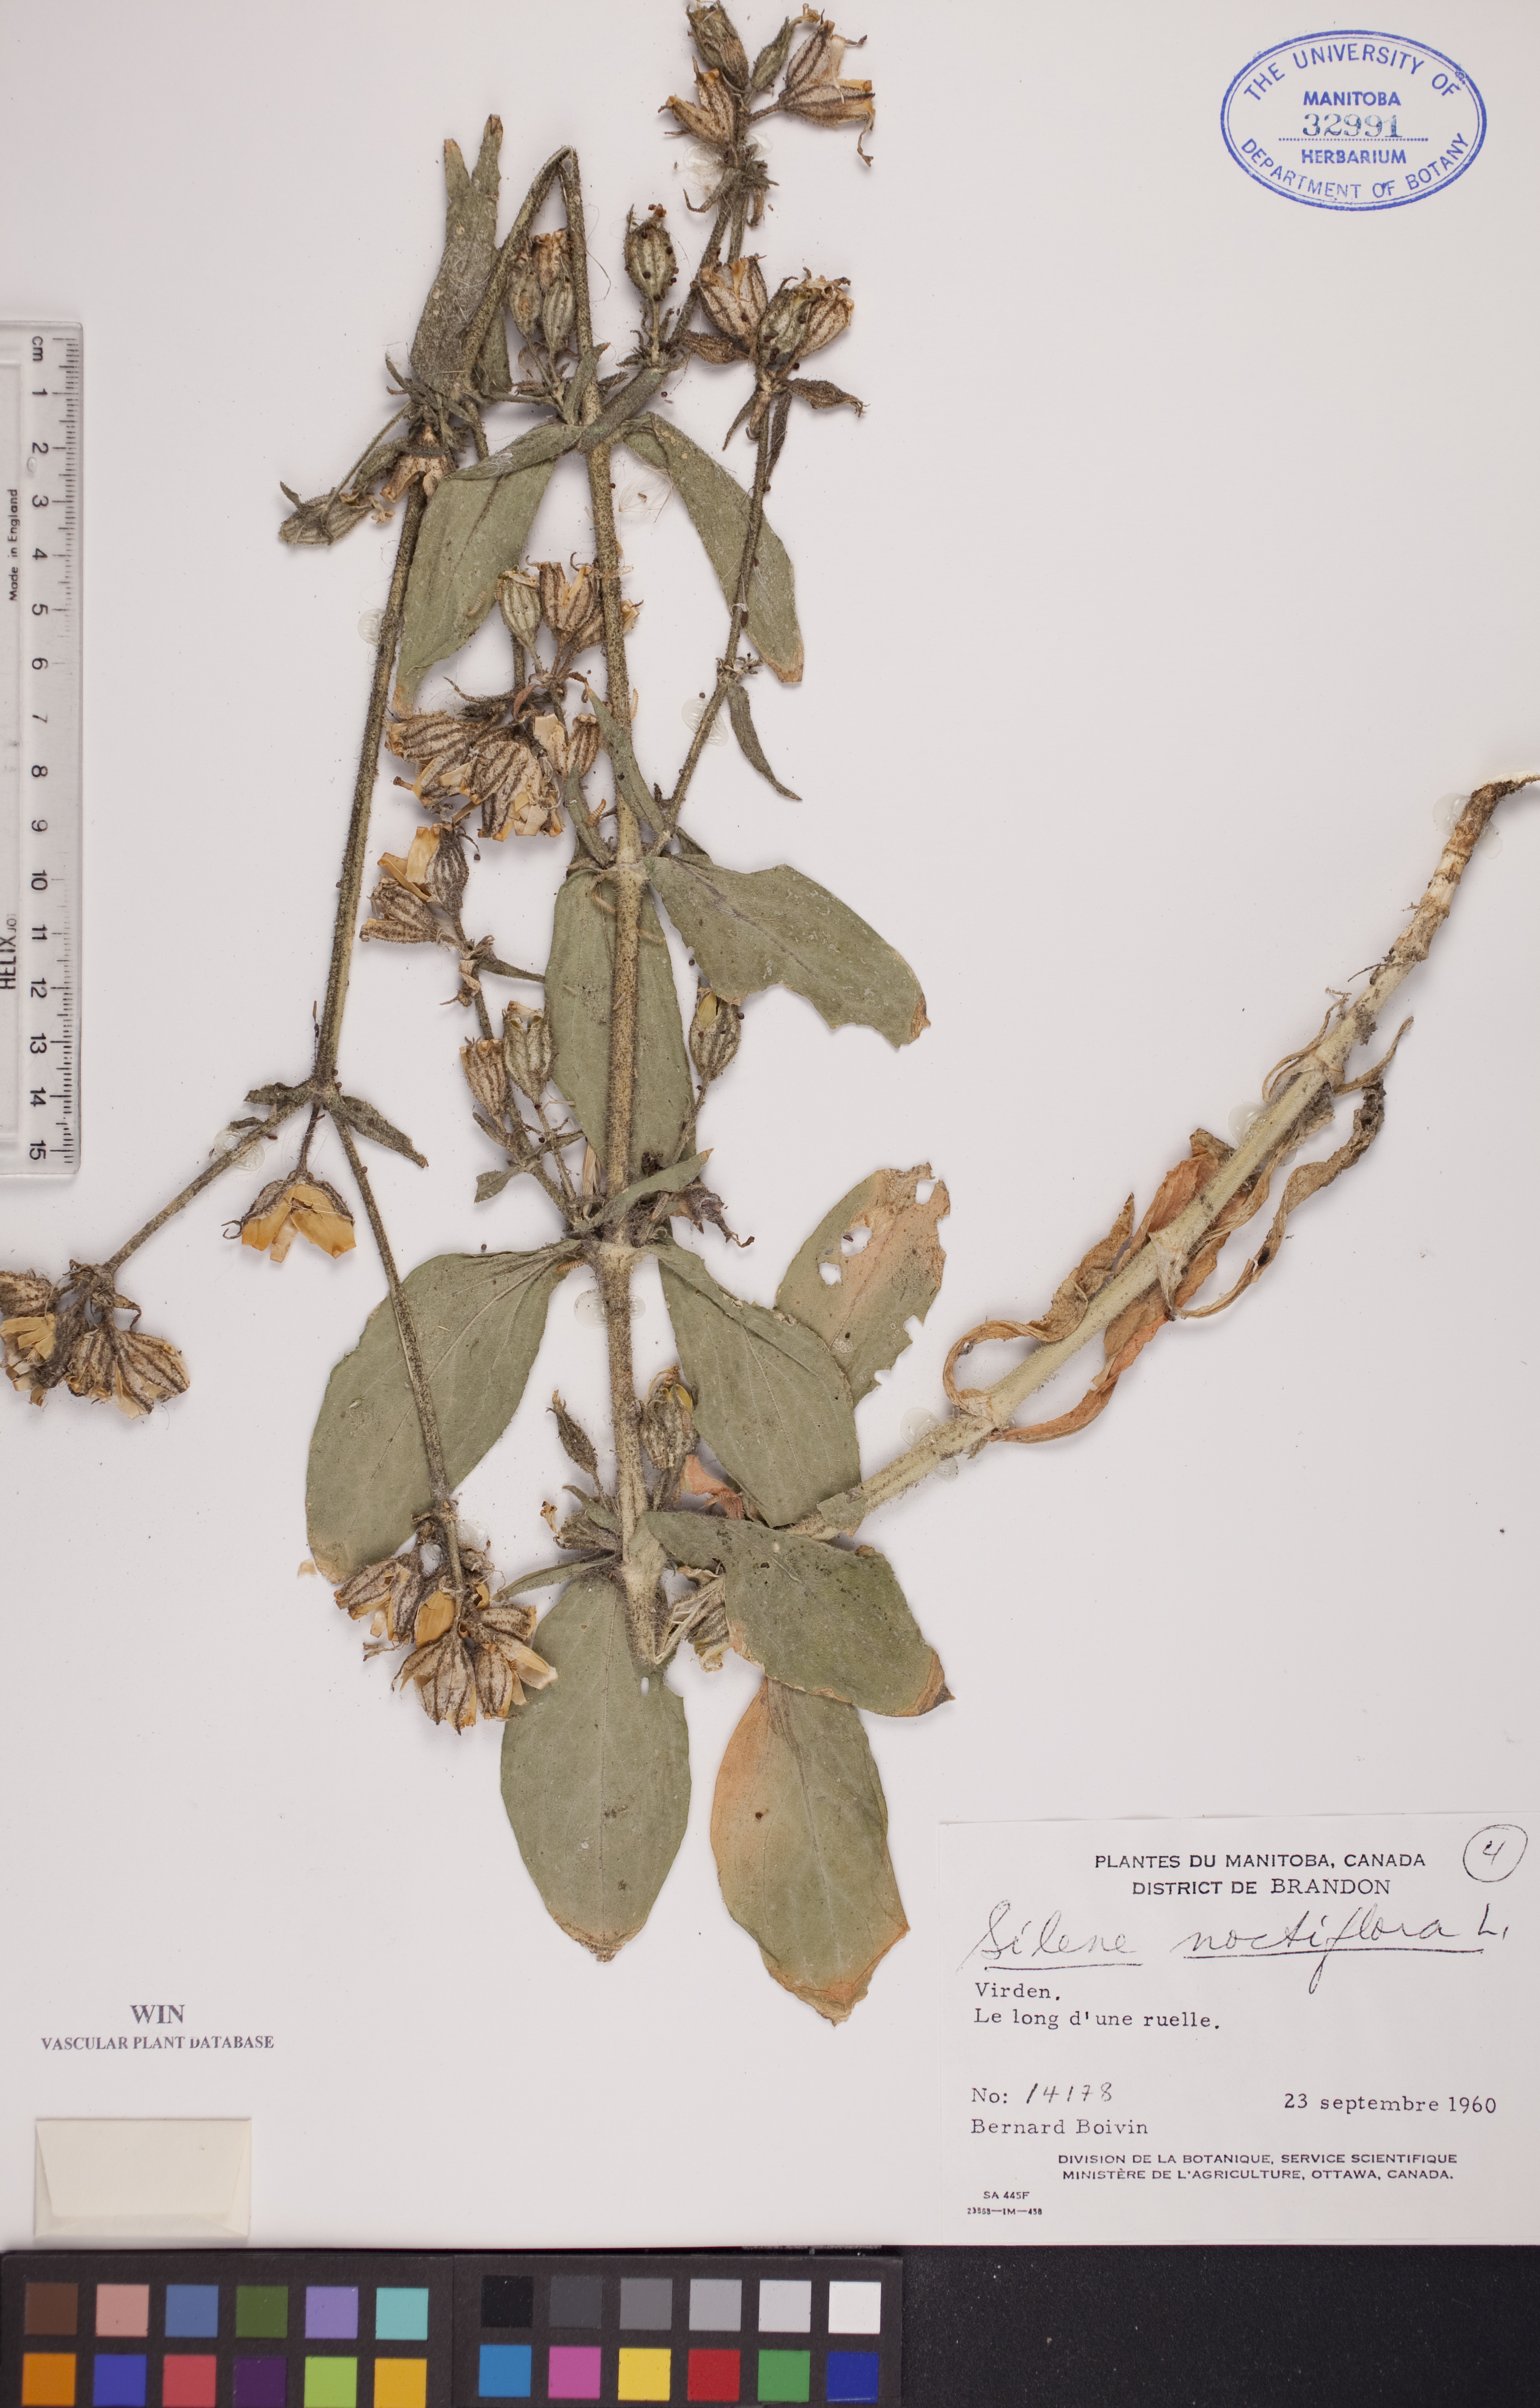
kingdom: Plantae
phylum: Tracheophyta
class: Magnoliopsida
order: Caryophyllales
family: Caryophyllaceae
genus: Silene
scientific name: Silene noctiflora
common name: Night-flowering catchfly
